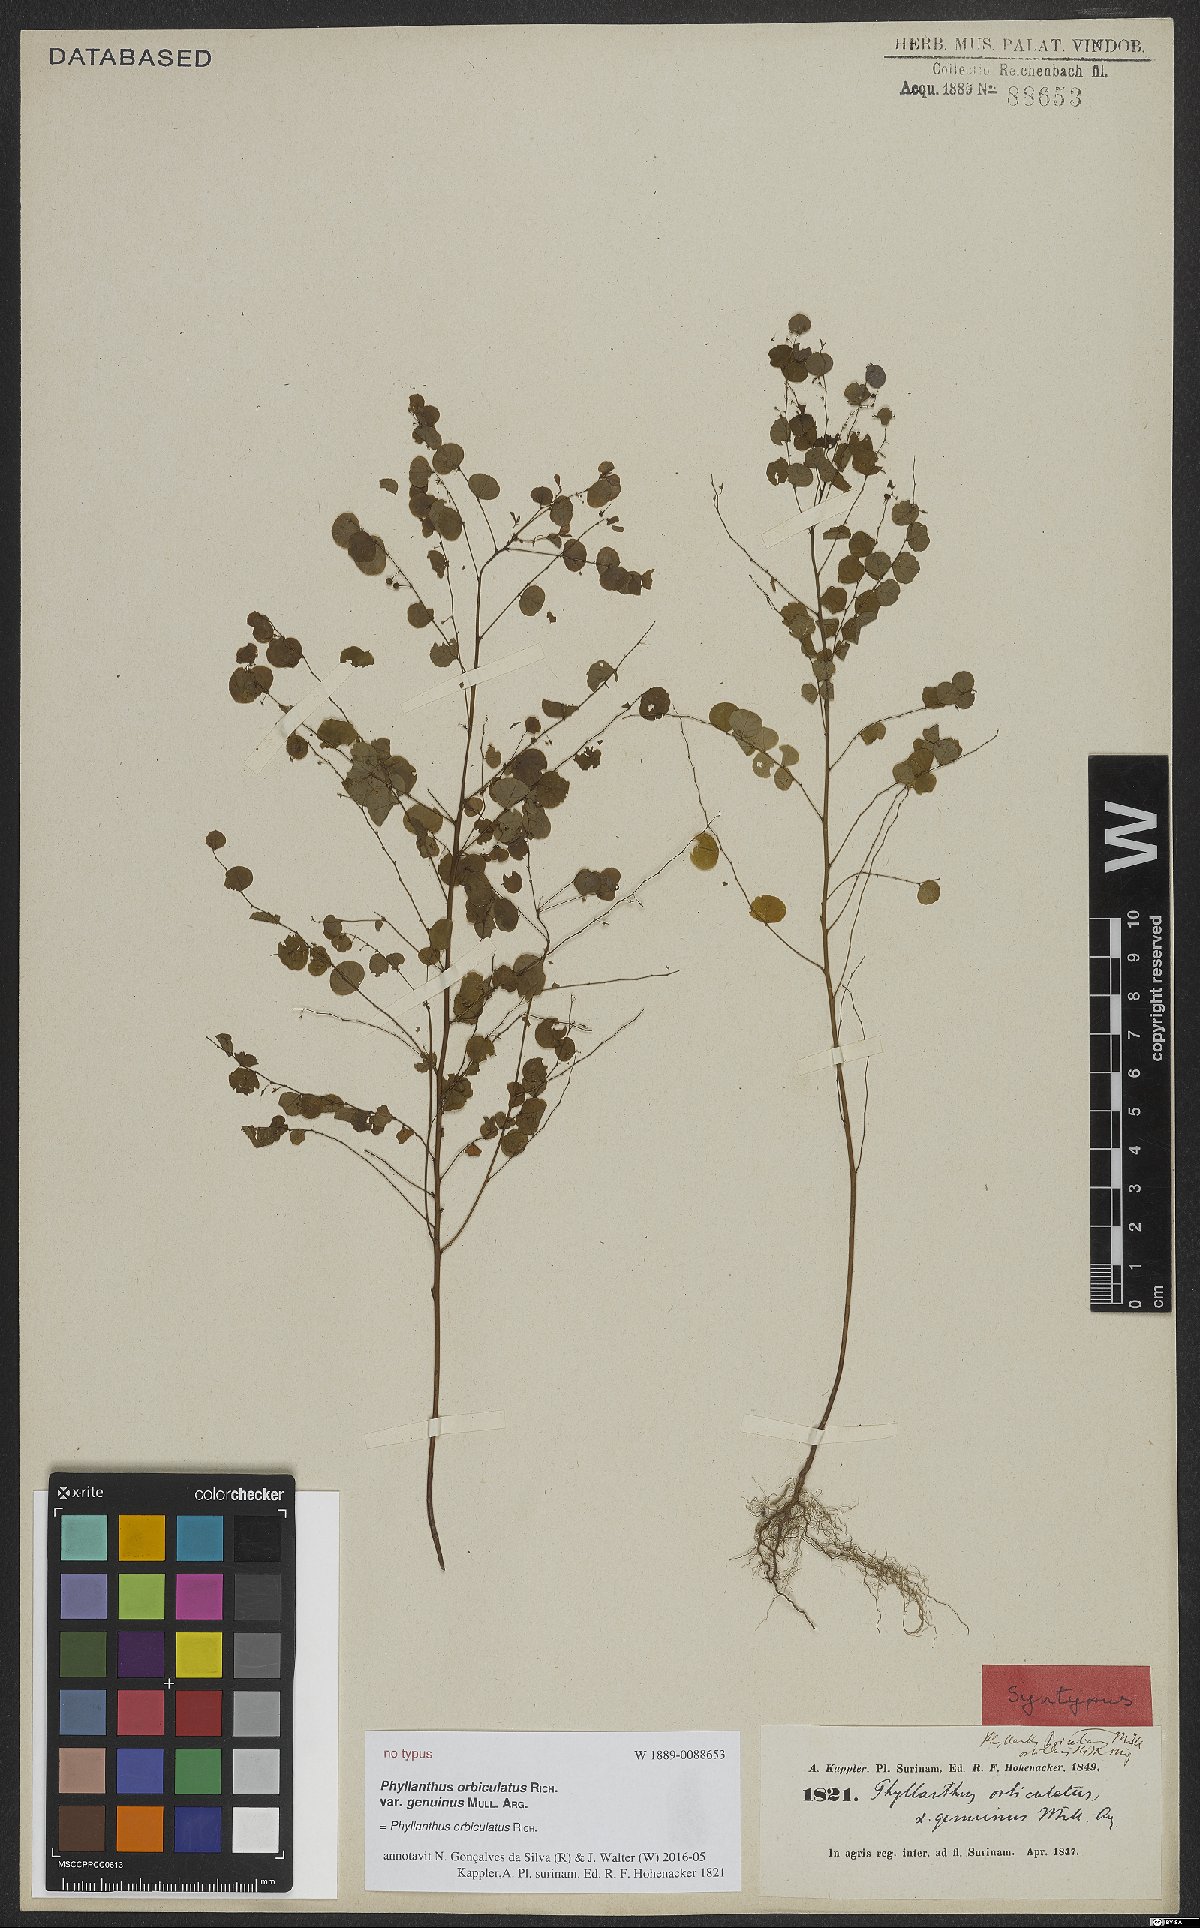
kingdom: Plantae
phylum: Tracheophyta
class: Magnoliopsida
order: Malpighiales
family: Phyllanthaceae
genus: Phyllanthus
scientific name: Phyllanthus orbiculatus
